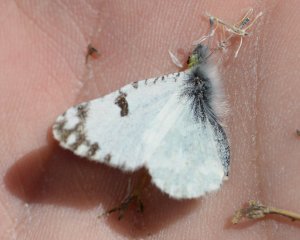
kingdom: Animalia
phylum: Arthropoda
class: Insecta
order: Lepidoptera
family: Pieridae
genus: Euchloe
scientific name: Euchloe hyantis
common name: California Marble
